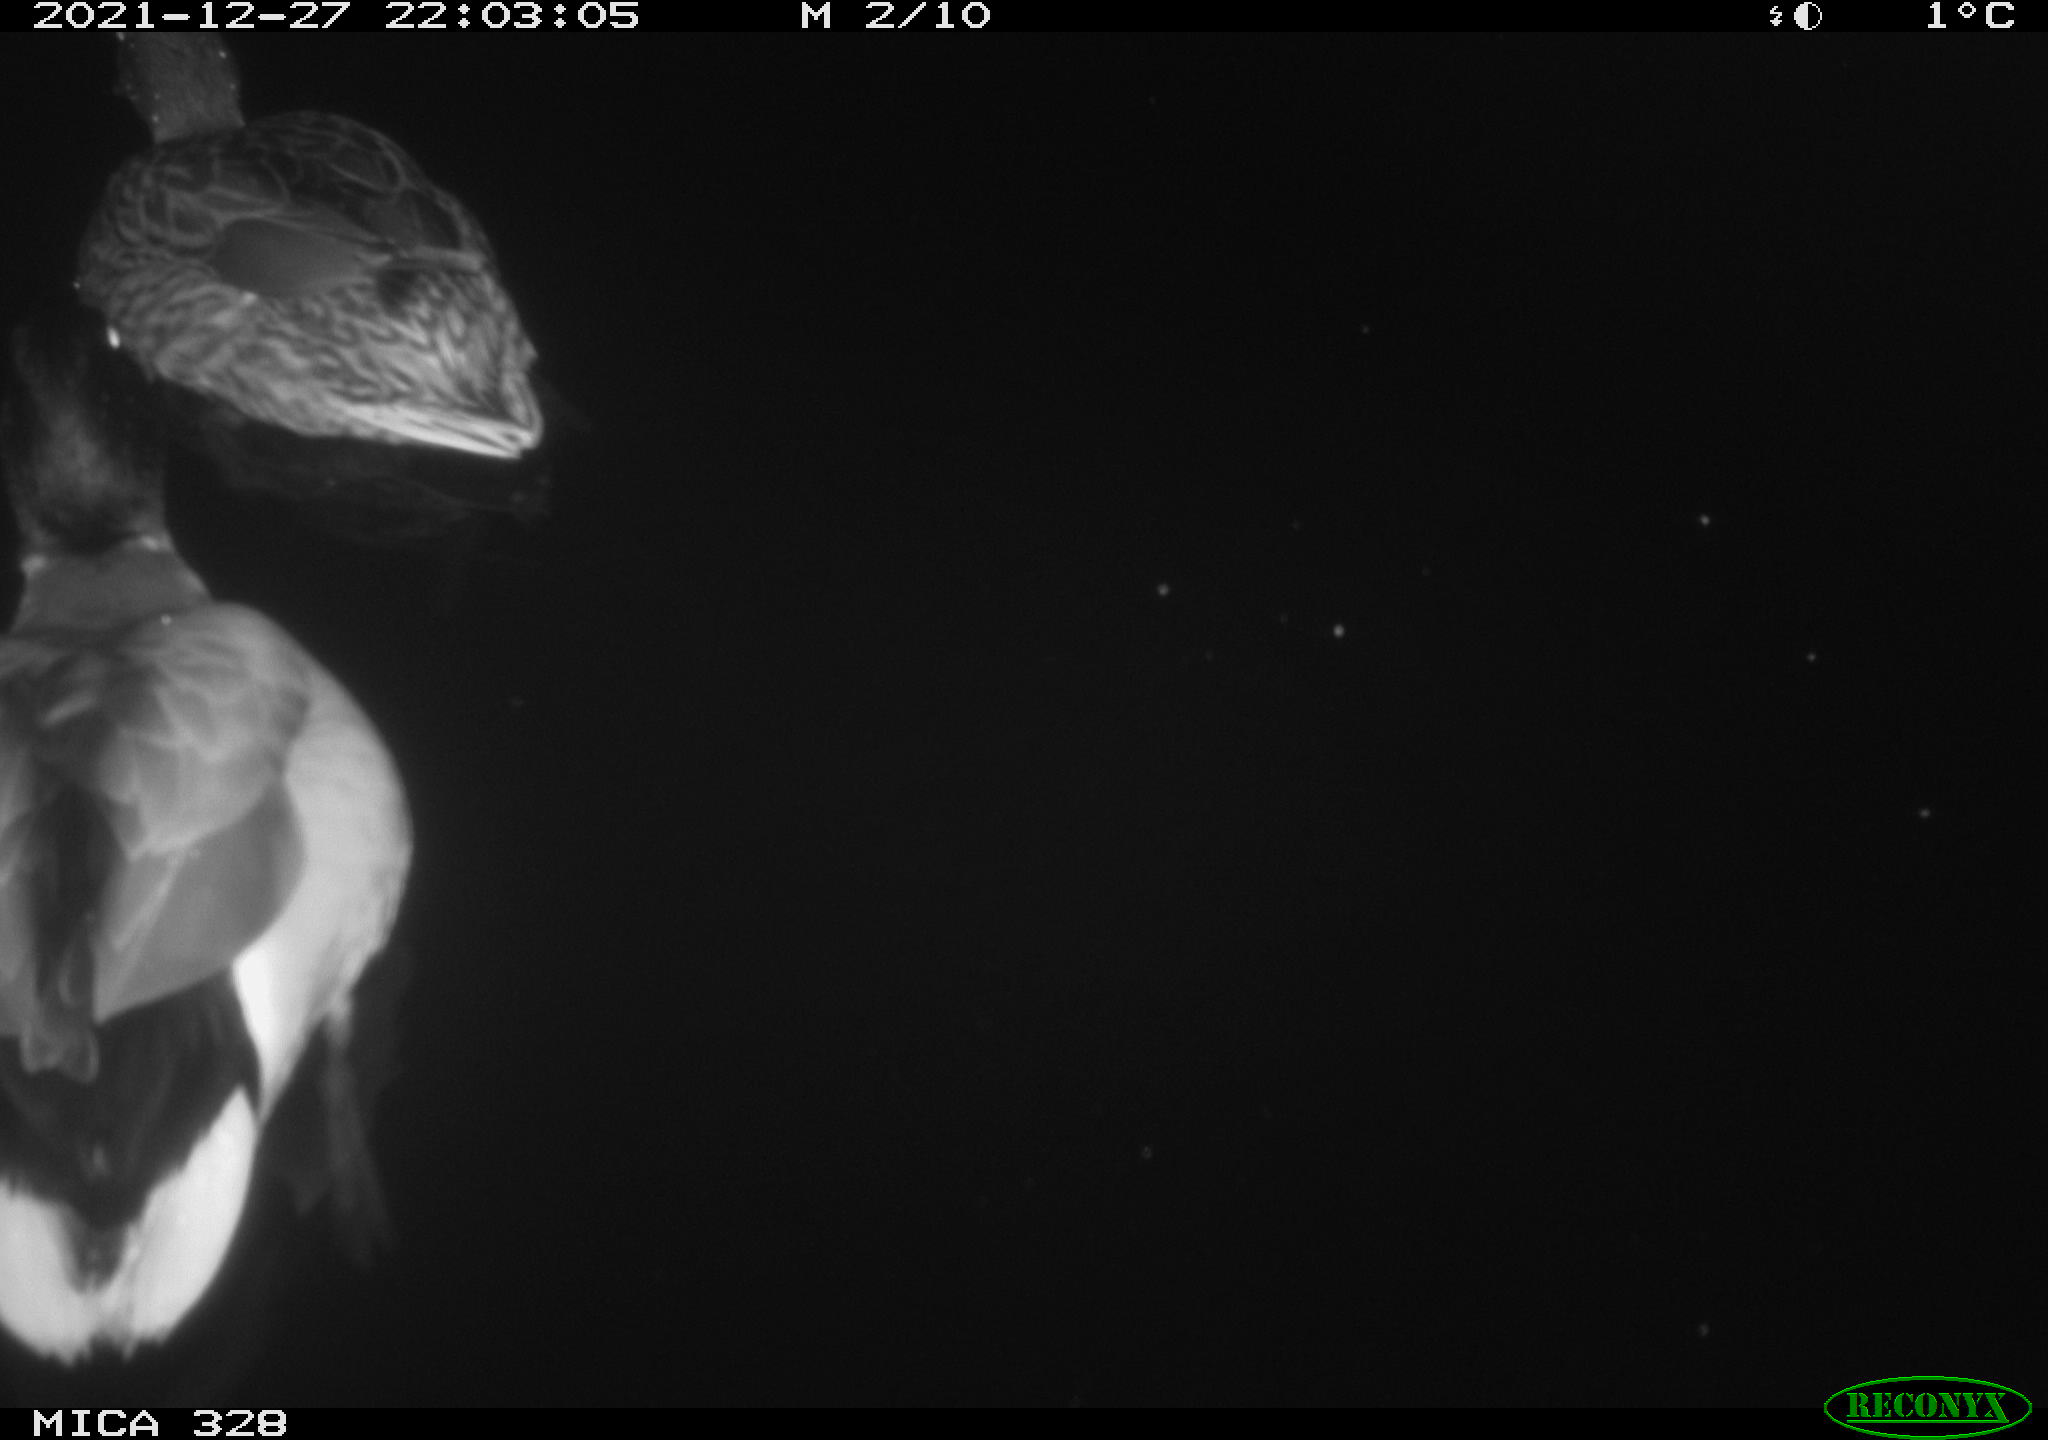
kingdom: Animalia
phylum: Chordata
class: Aves
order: Anseriformes
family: Anatidae
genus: Anas
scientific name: Anas platyrhynchos
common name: Mallard
